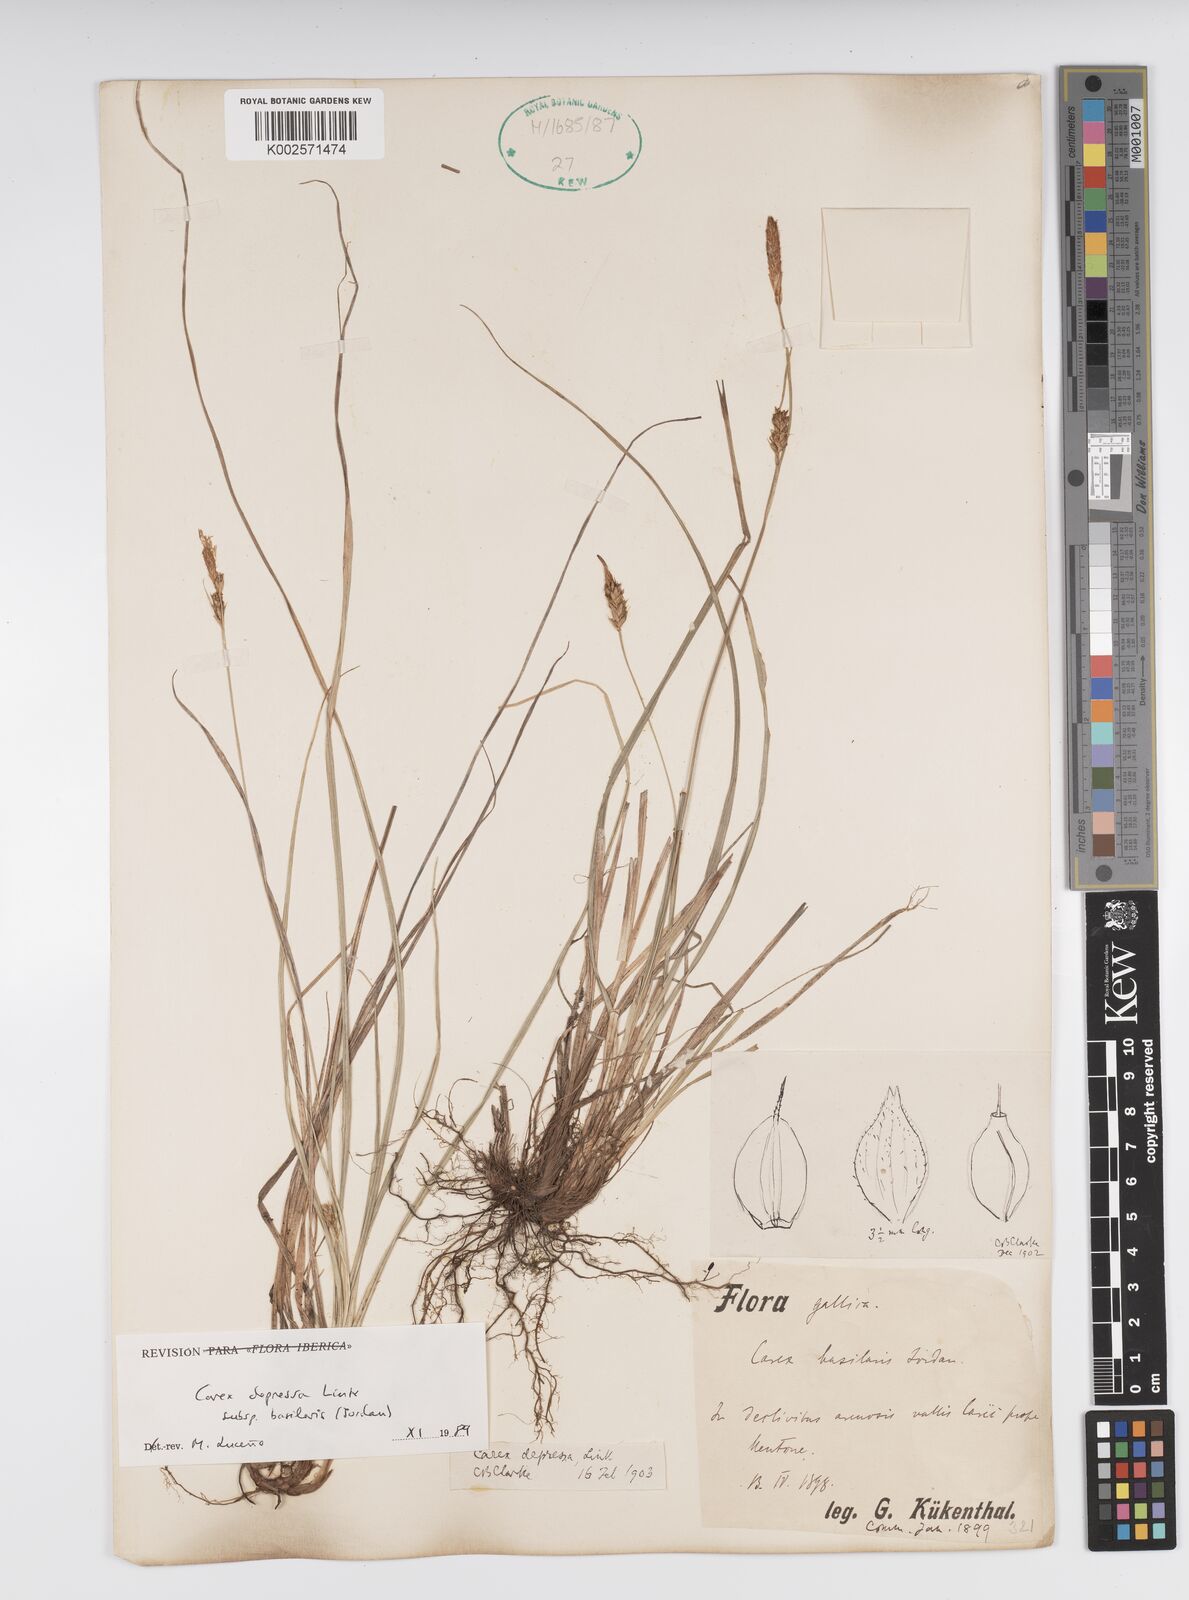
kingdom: Plantae
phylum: Tracheophyta
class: Liliopsida
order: Poales
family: Cyperaceae
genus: Carex
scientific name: Carex depressa
